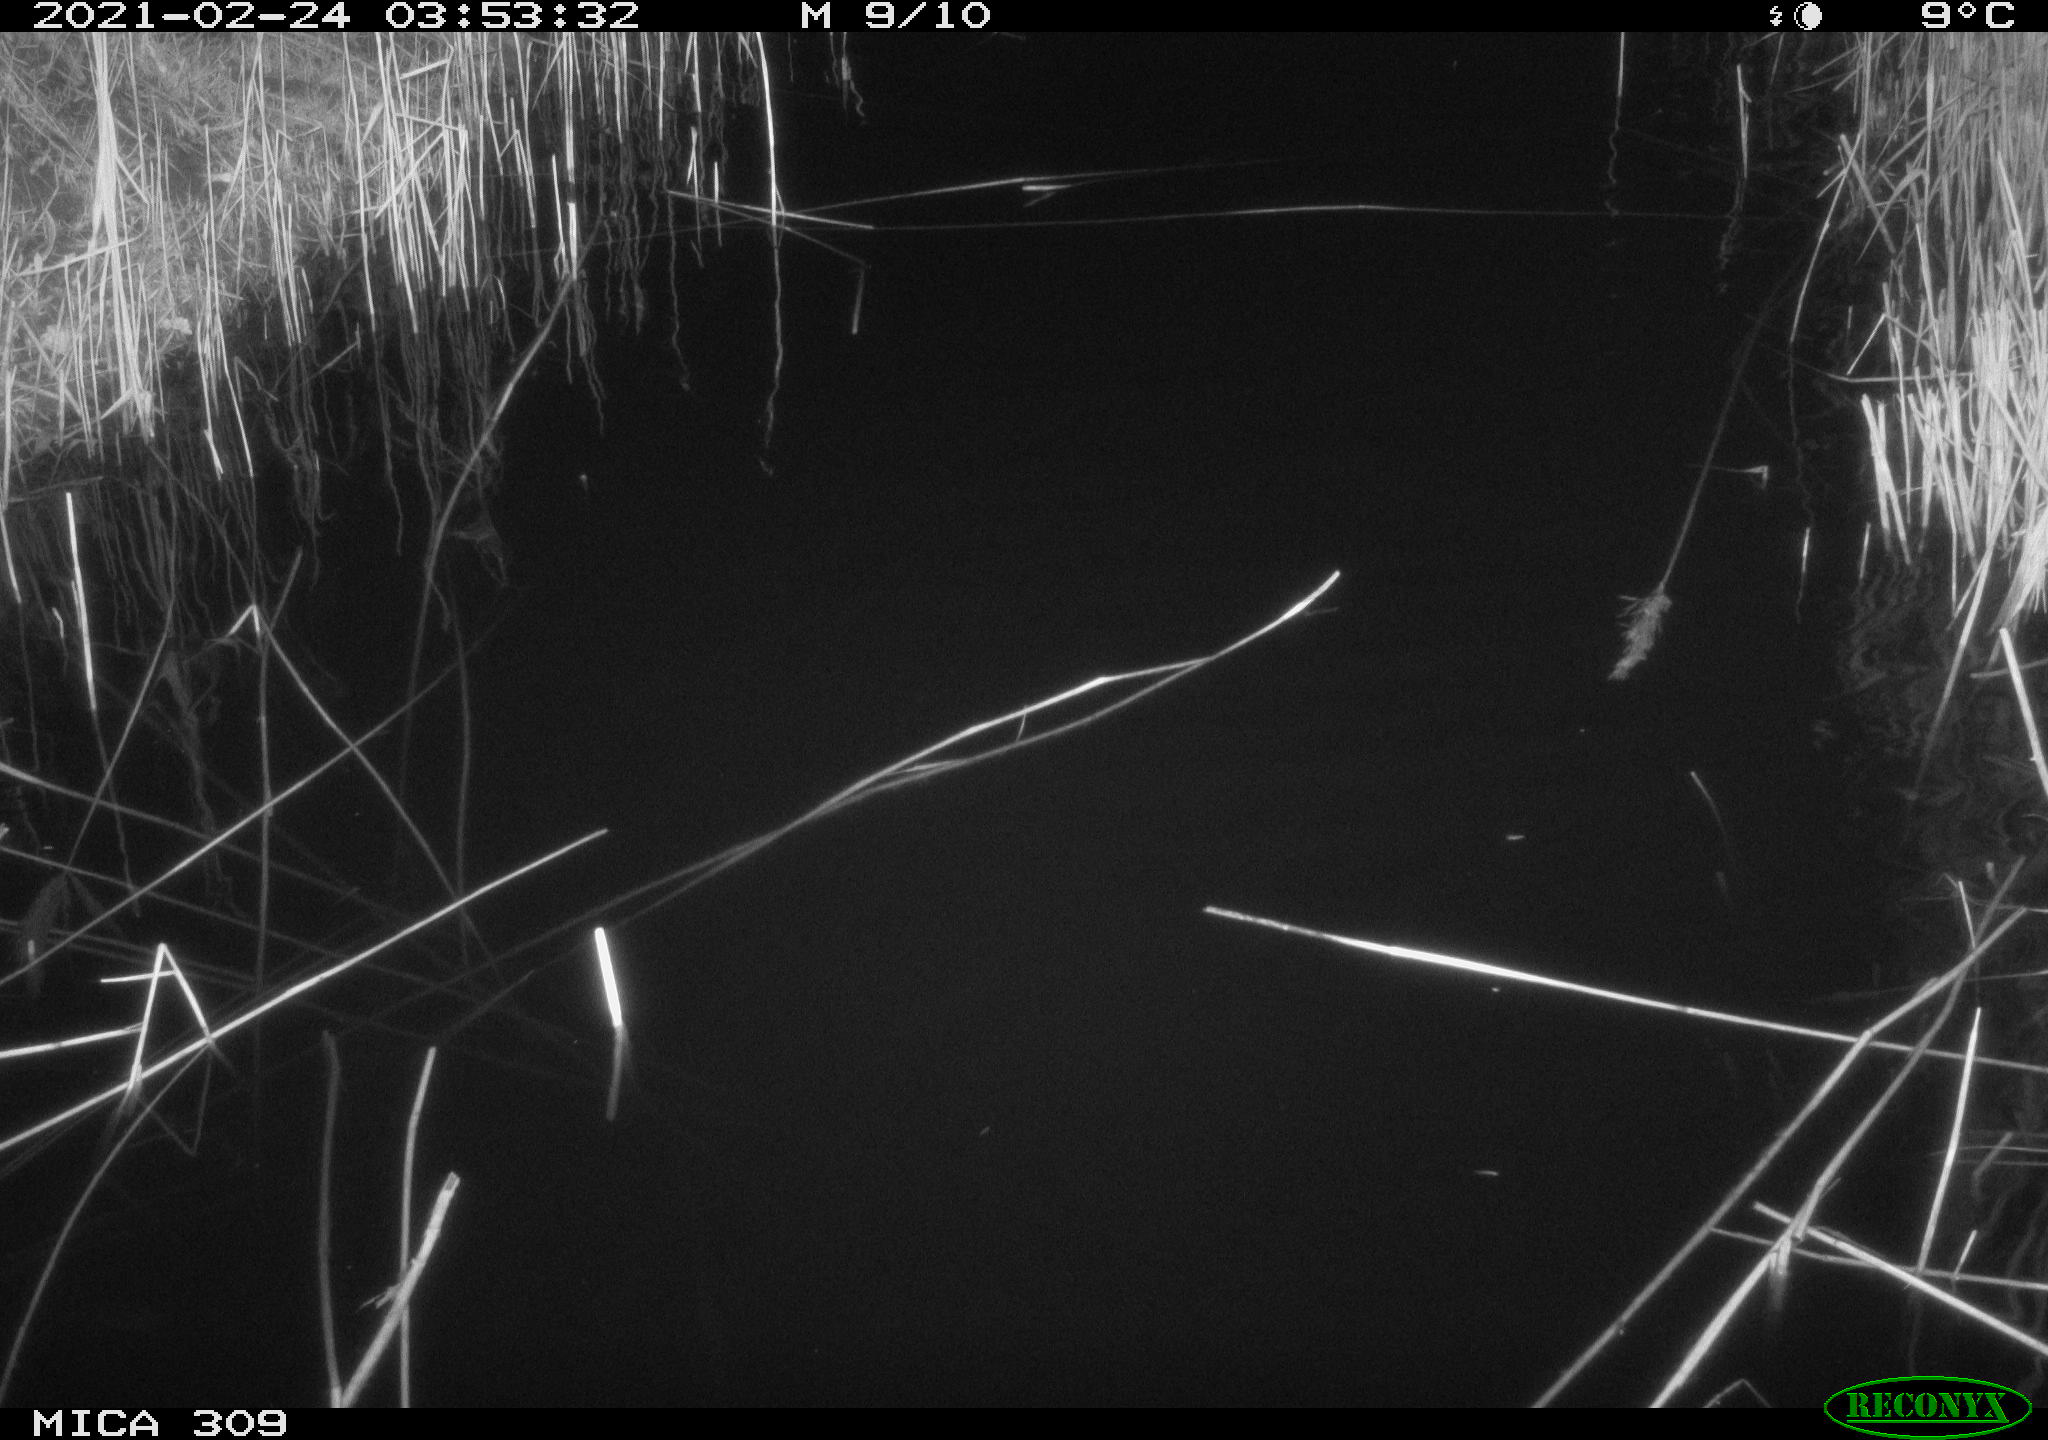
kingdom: Animalia
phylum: Chordata
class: Mammalia
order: Rodentia
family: Muridae
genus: Rattus
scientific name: Rattus norvegicus
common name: Brown rat
